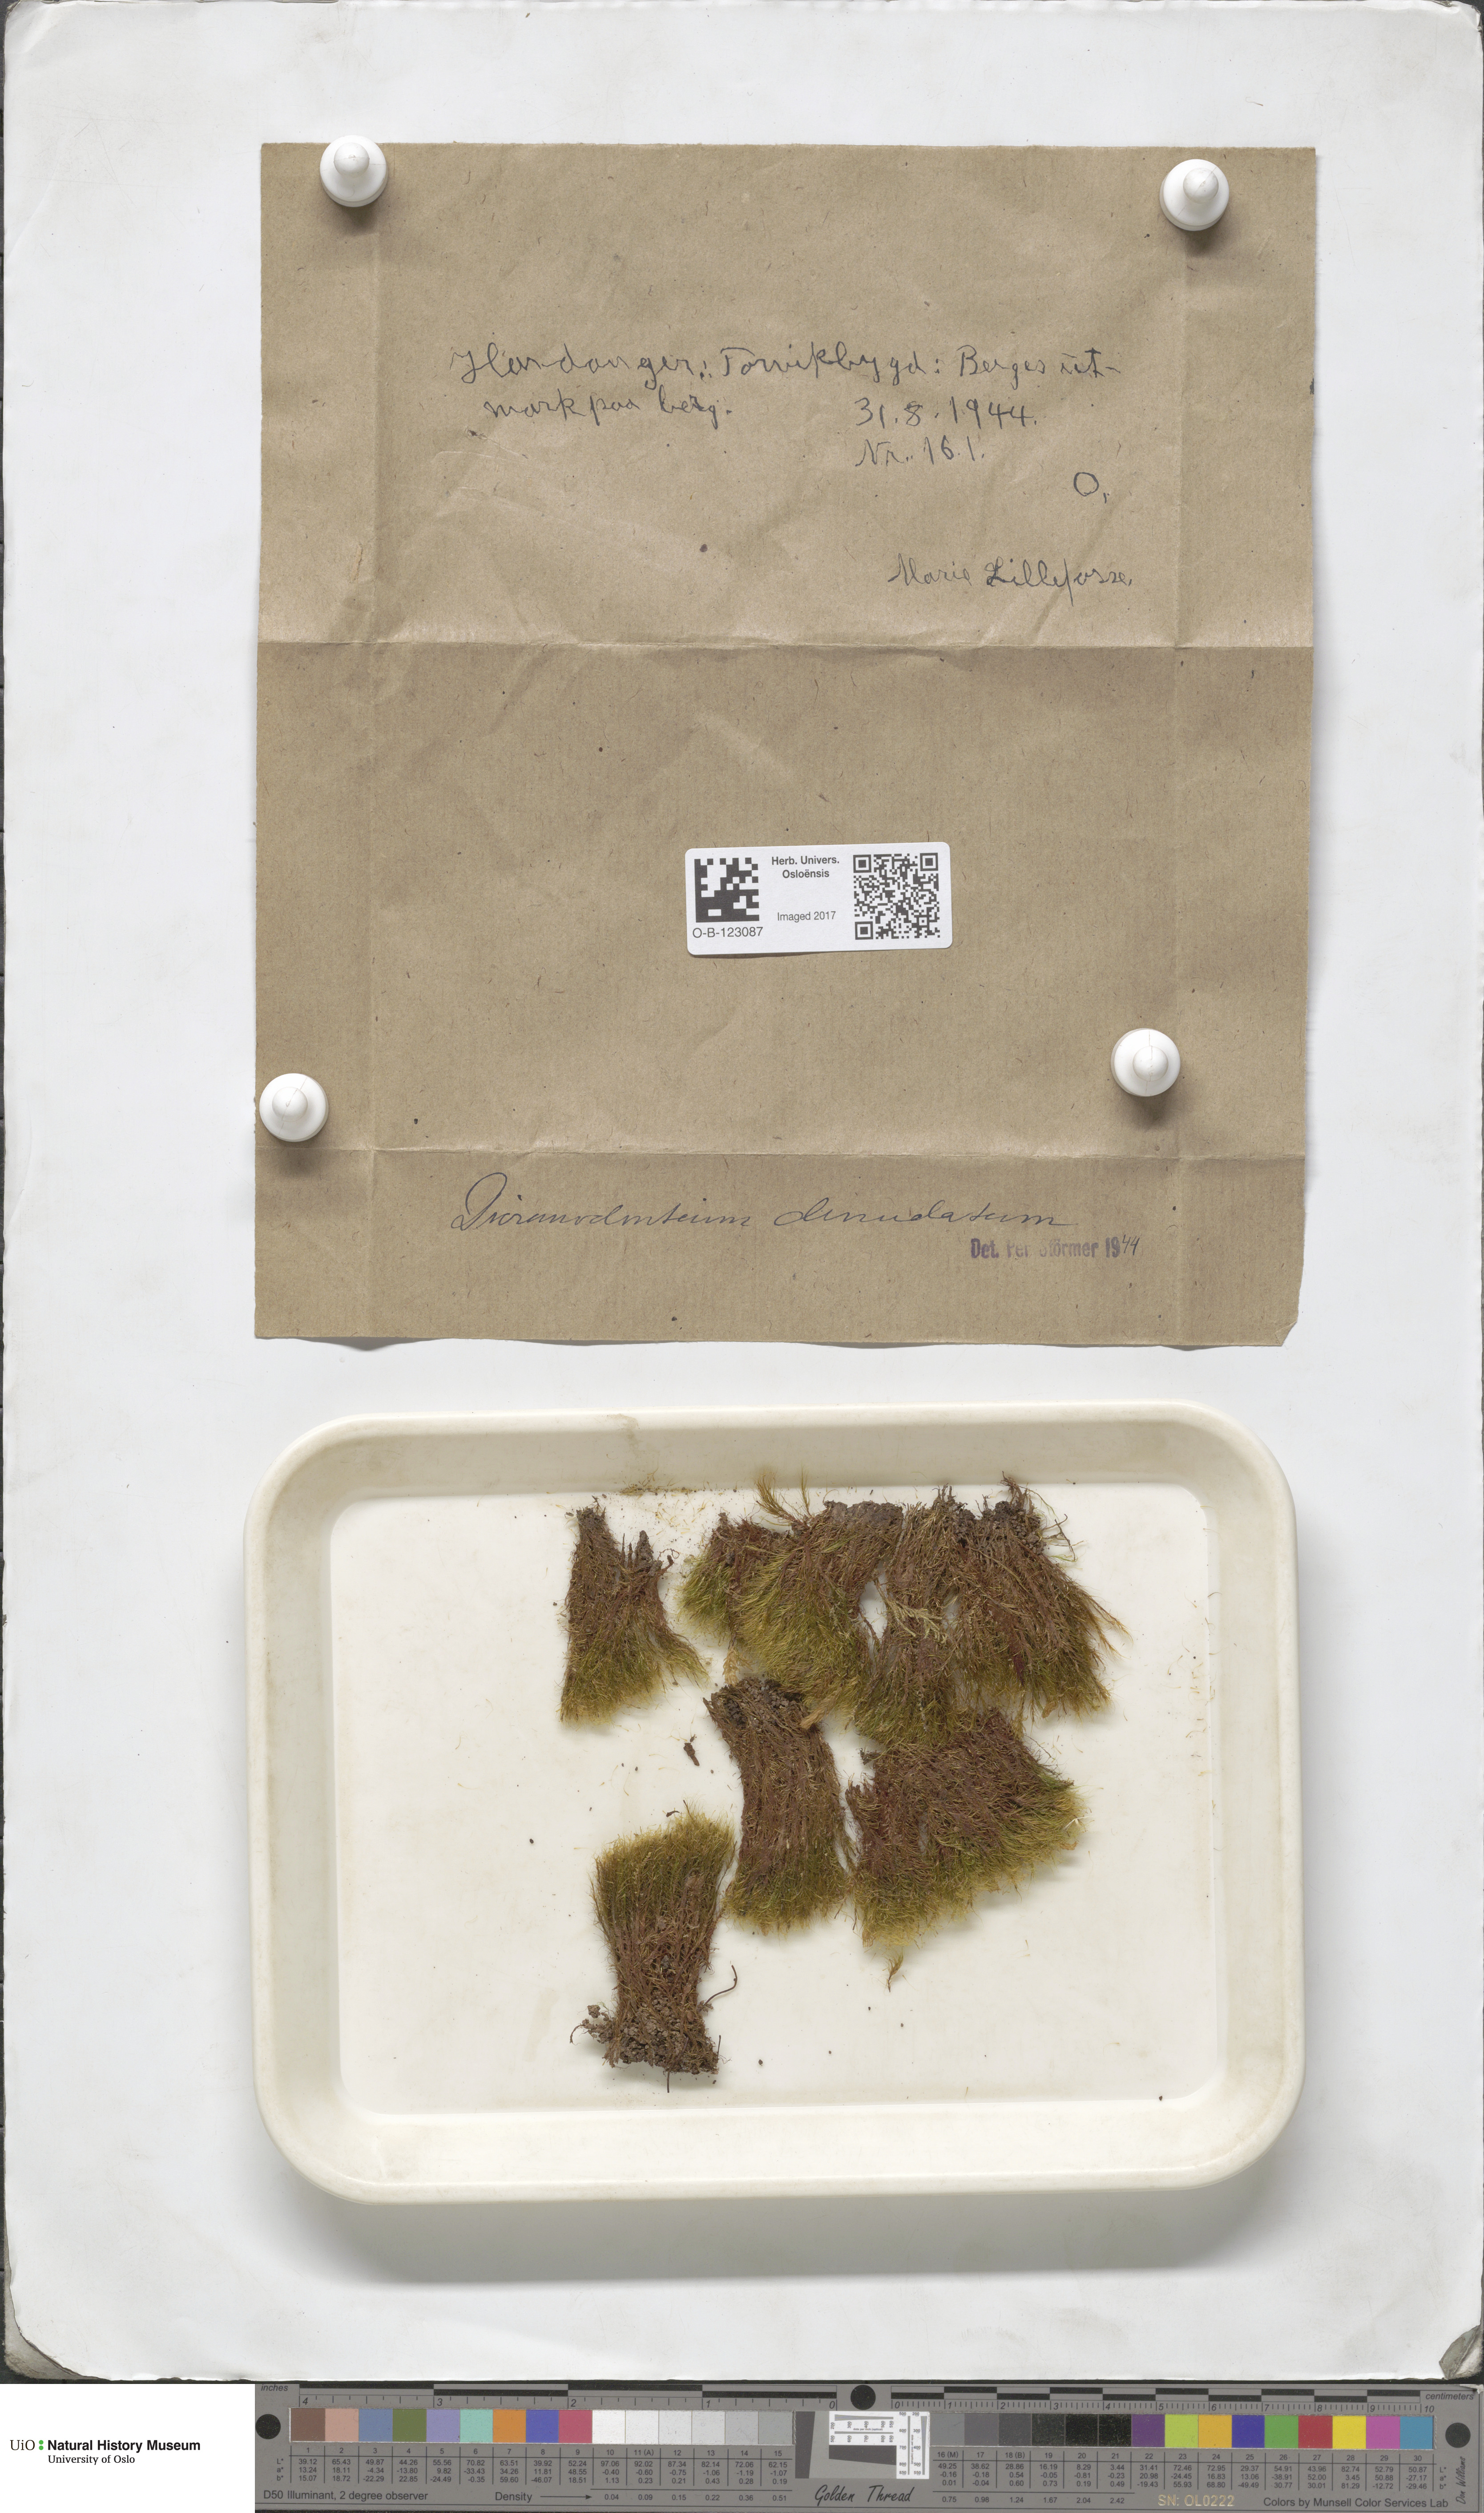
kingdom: Plantae
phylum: Bryophyta
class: Bryopsida
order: Dicranales
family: Leucobryaceae
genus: Dicranodontium
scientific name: Dicranodontium denudatum
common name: Beaked bow moss
